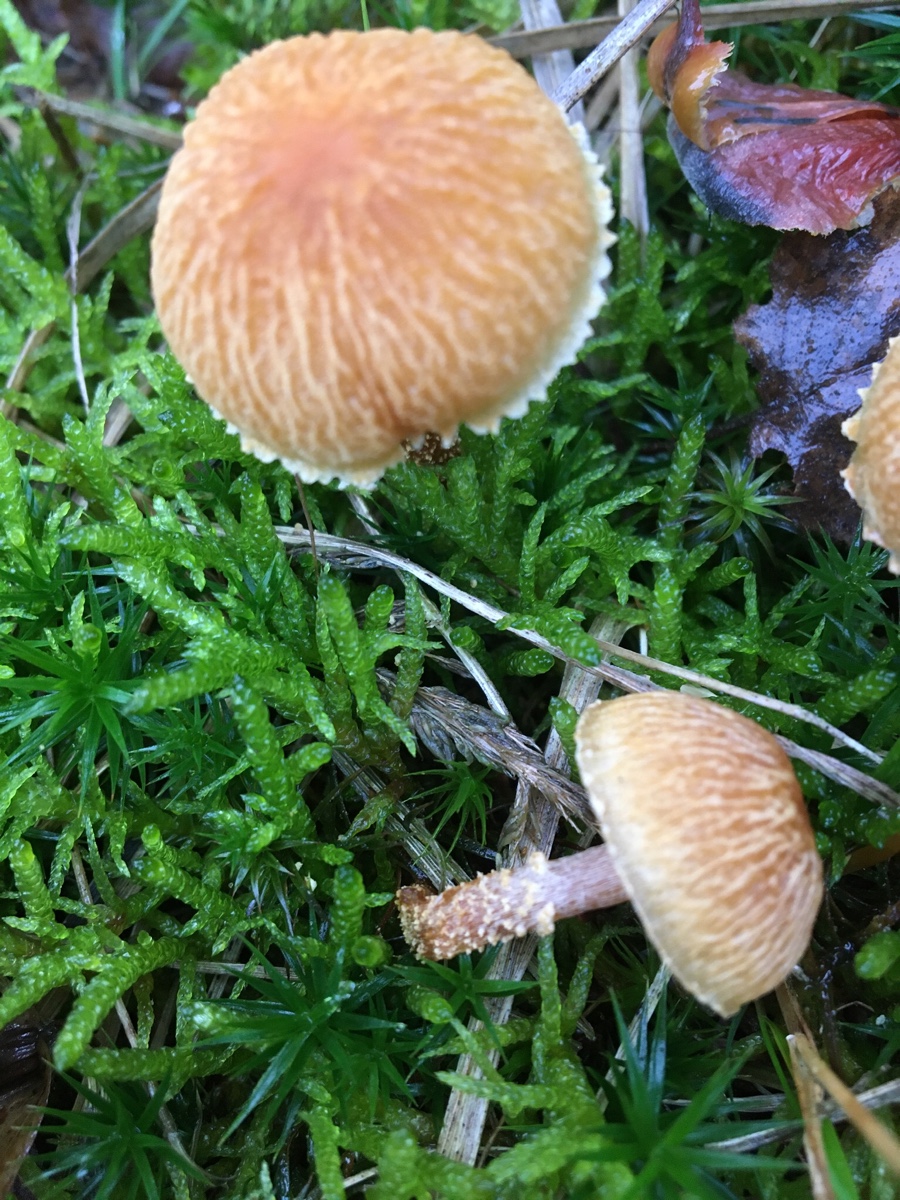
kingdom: Fungi
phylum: Basidiomycota
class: Agaricomycetes
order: Agaricales
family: Tricholomataceae
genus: Cystoderma
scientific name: Cystoderma amianthinum
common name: okkergul grynhat
